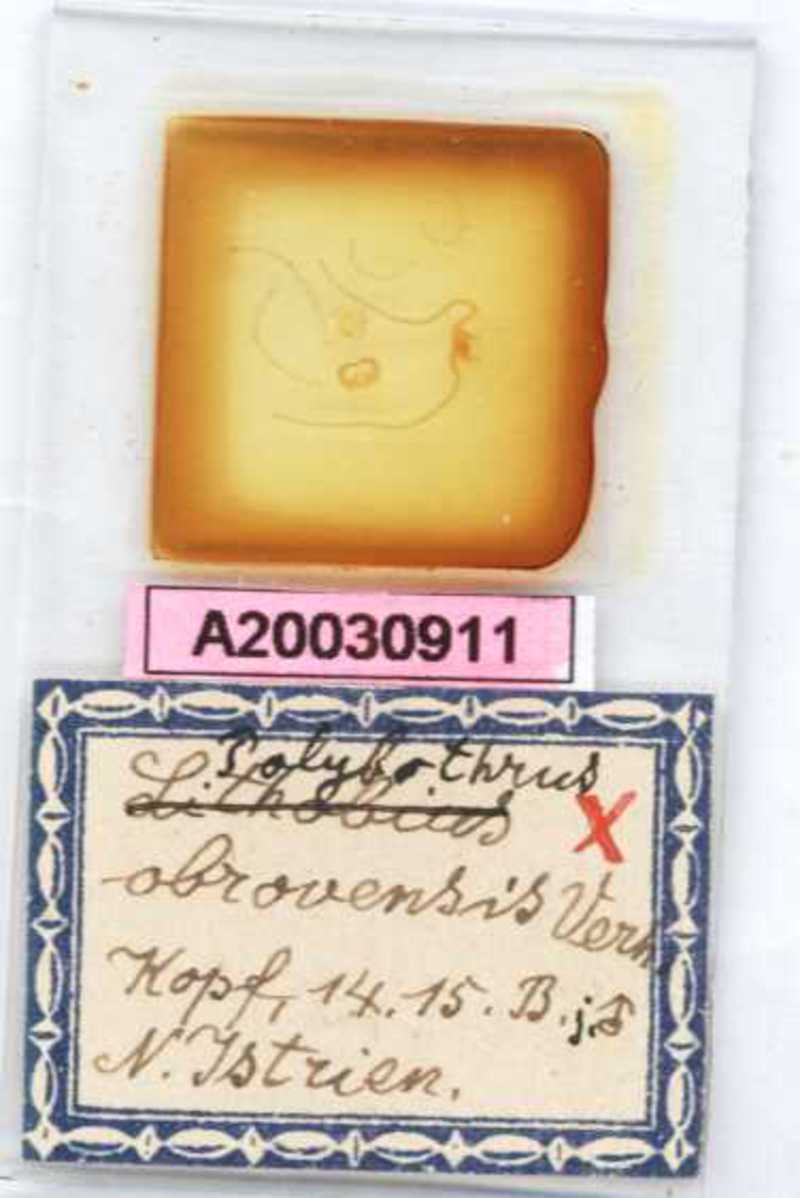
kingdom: Animalia
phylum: Arthropoda
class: Chilopoda
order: Lithobiomorpha
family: Lithobiidae
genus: Polybothrus
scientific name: Polybothrus obrovensis
